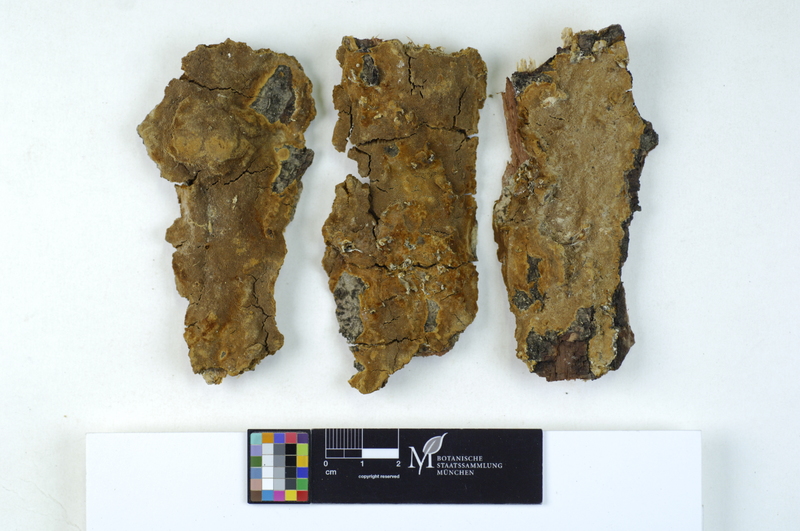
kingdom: Plantae
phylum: Tracheophyta
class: Magnoliopsida
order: Fagales
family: Fagaceae
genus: Quercus
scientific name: Quercus
